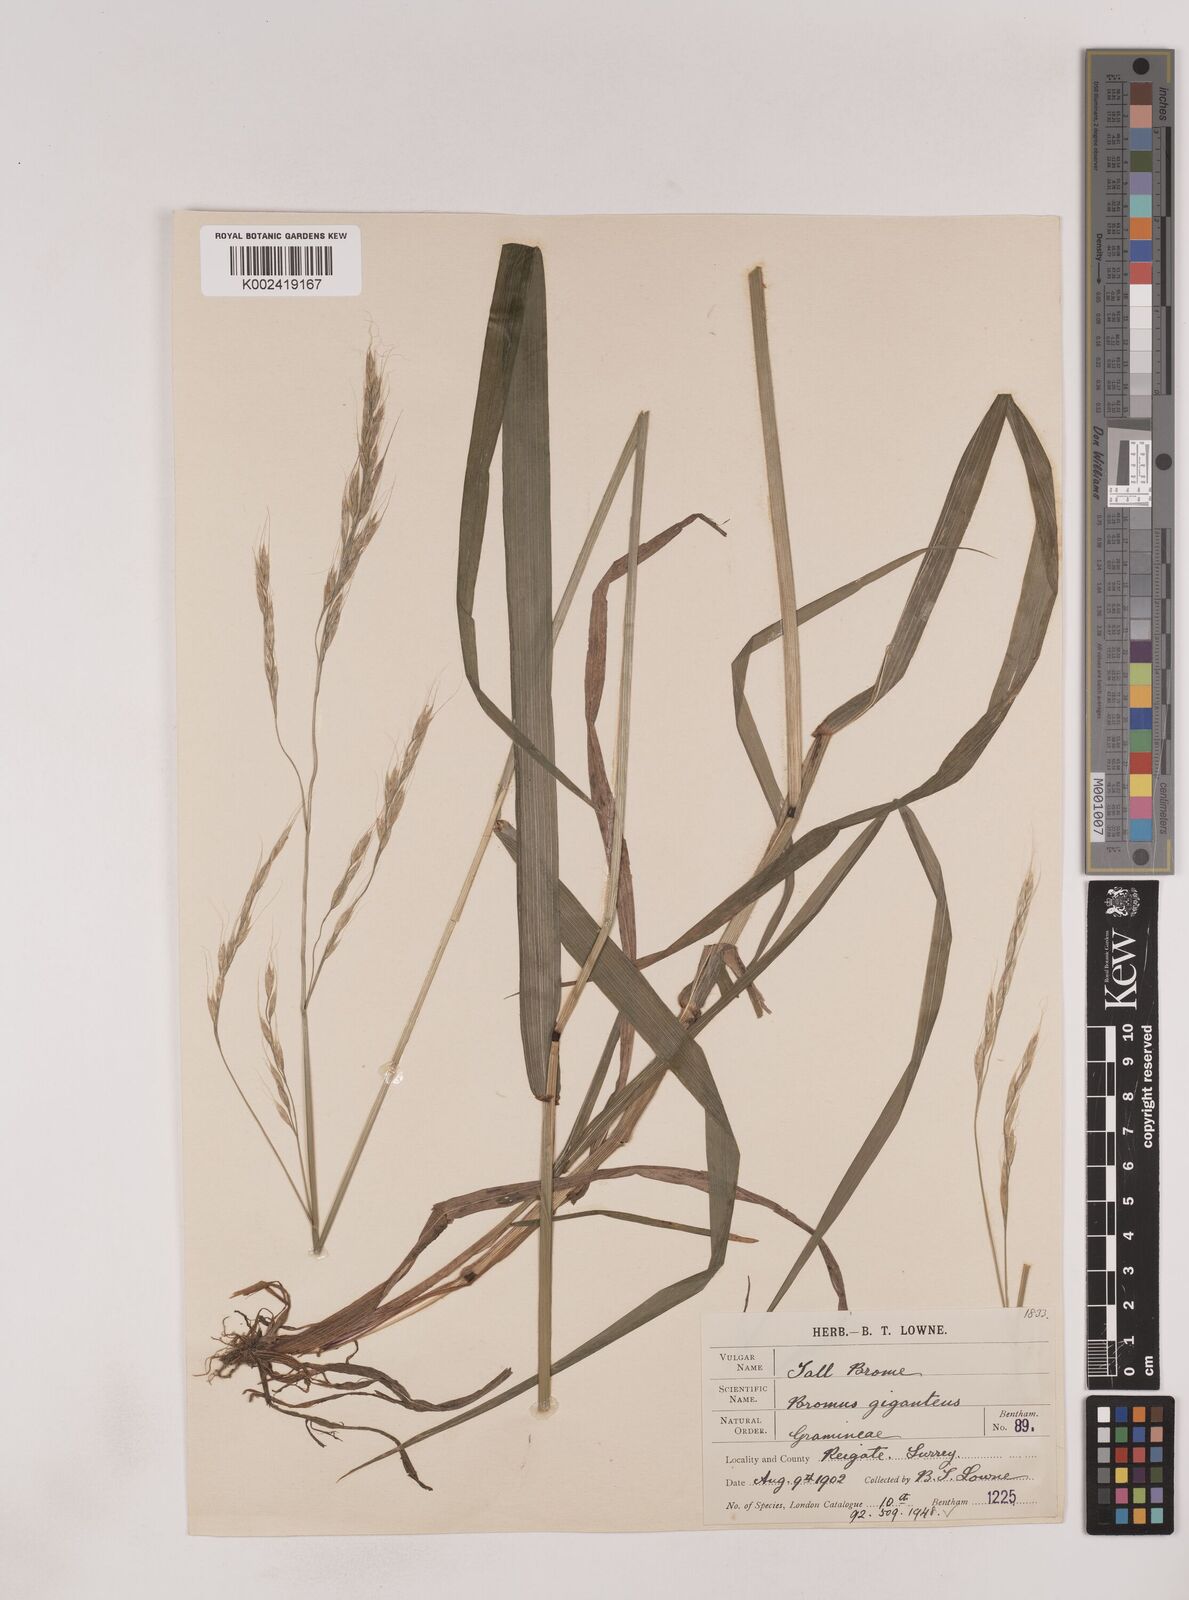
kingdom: Plantae
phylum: Tracheophyta
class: Liliopsida
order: Poales
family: Poaceae
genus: Lolium
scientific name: Lolium giganteum
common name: Giant fescue
